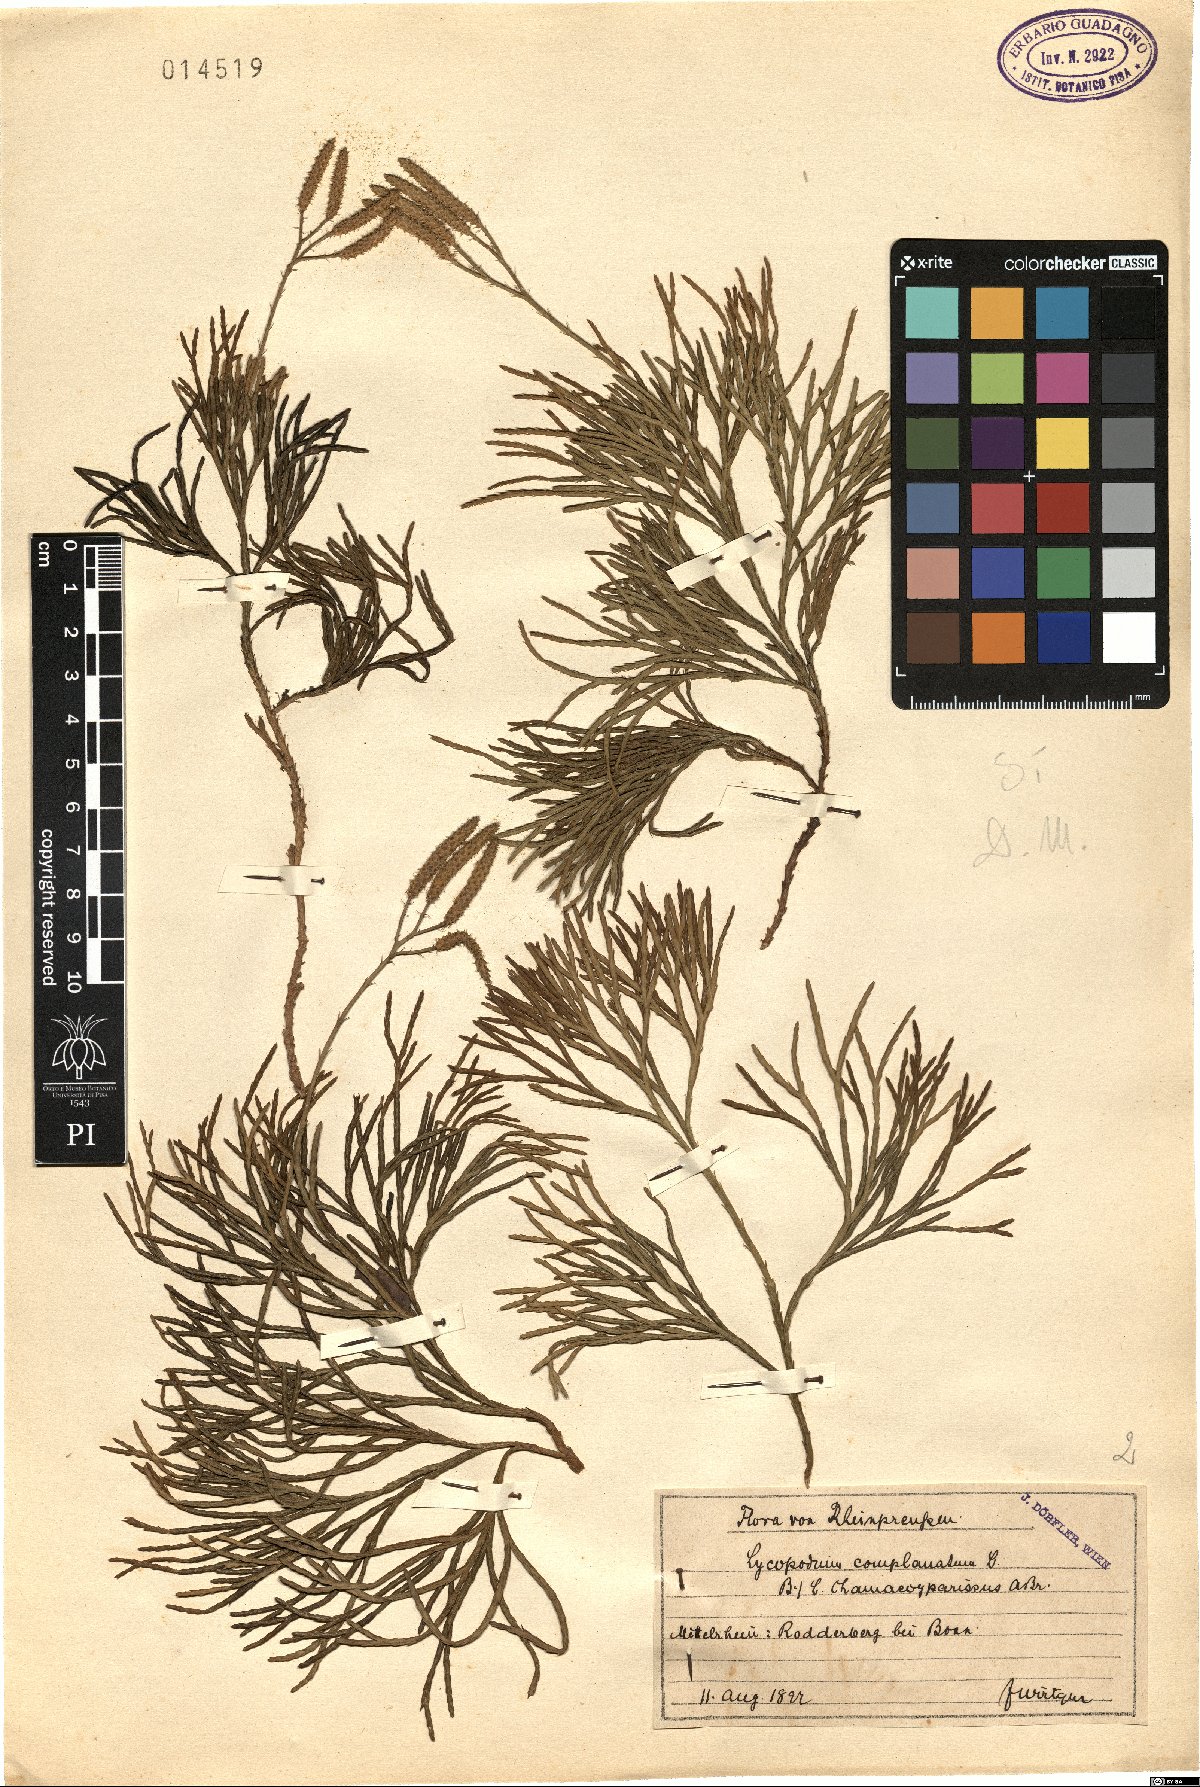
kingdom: Plantae
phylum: Tracheophyta
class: Lycopodiopsida
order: Lycopodiales
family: Lycopodiaceae
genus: Diphasiastrum
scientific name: Diphasiastrum tristachyum
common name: Blue ground-cedar
